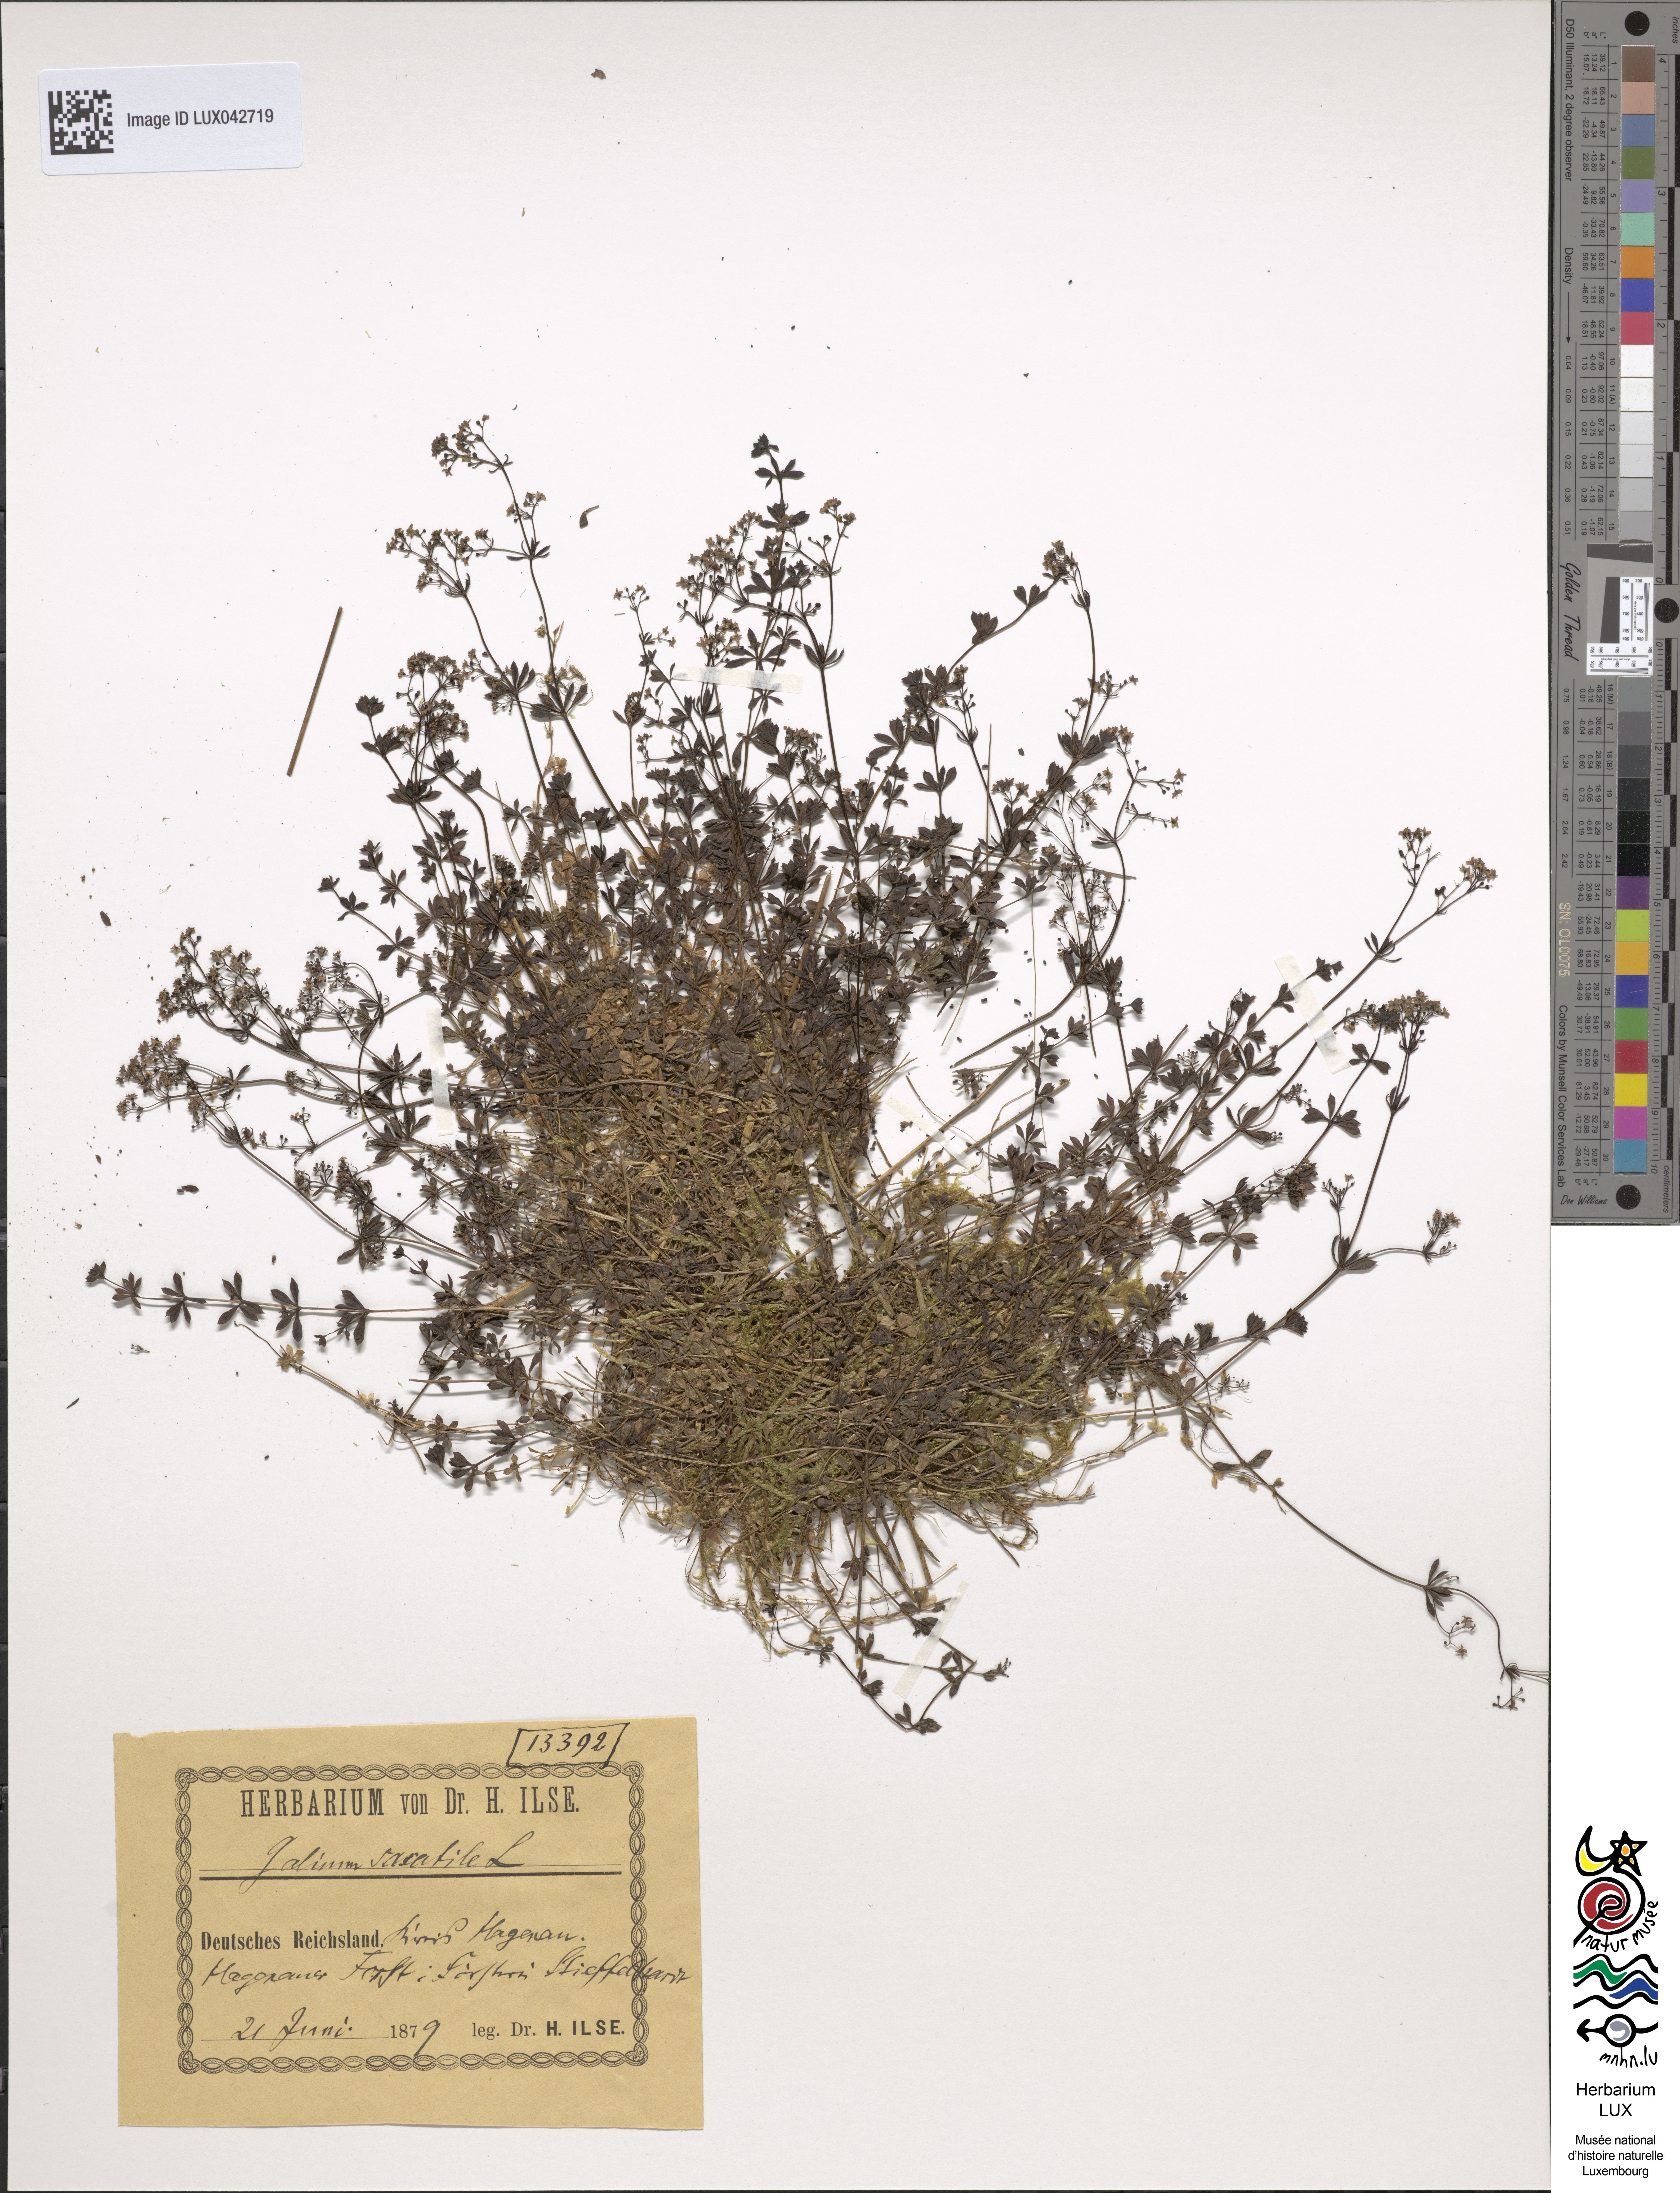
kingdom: Plantae
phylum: Tracheophyta
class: Magnoliopsida
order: Gentianales
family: Rubiaceae
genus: Galium
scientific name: Galium saxatile
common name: Heath bedstraw
